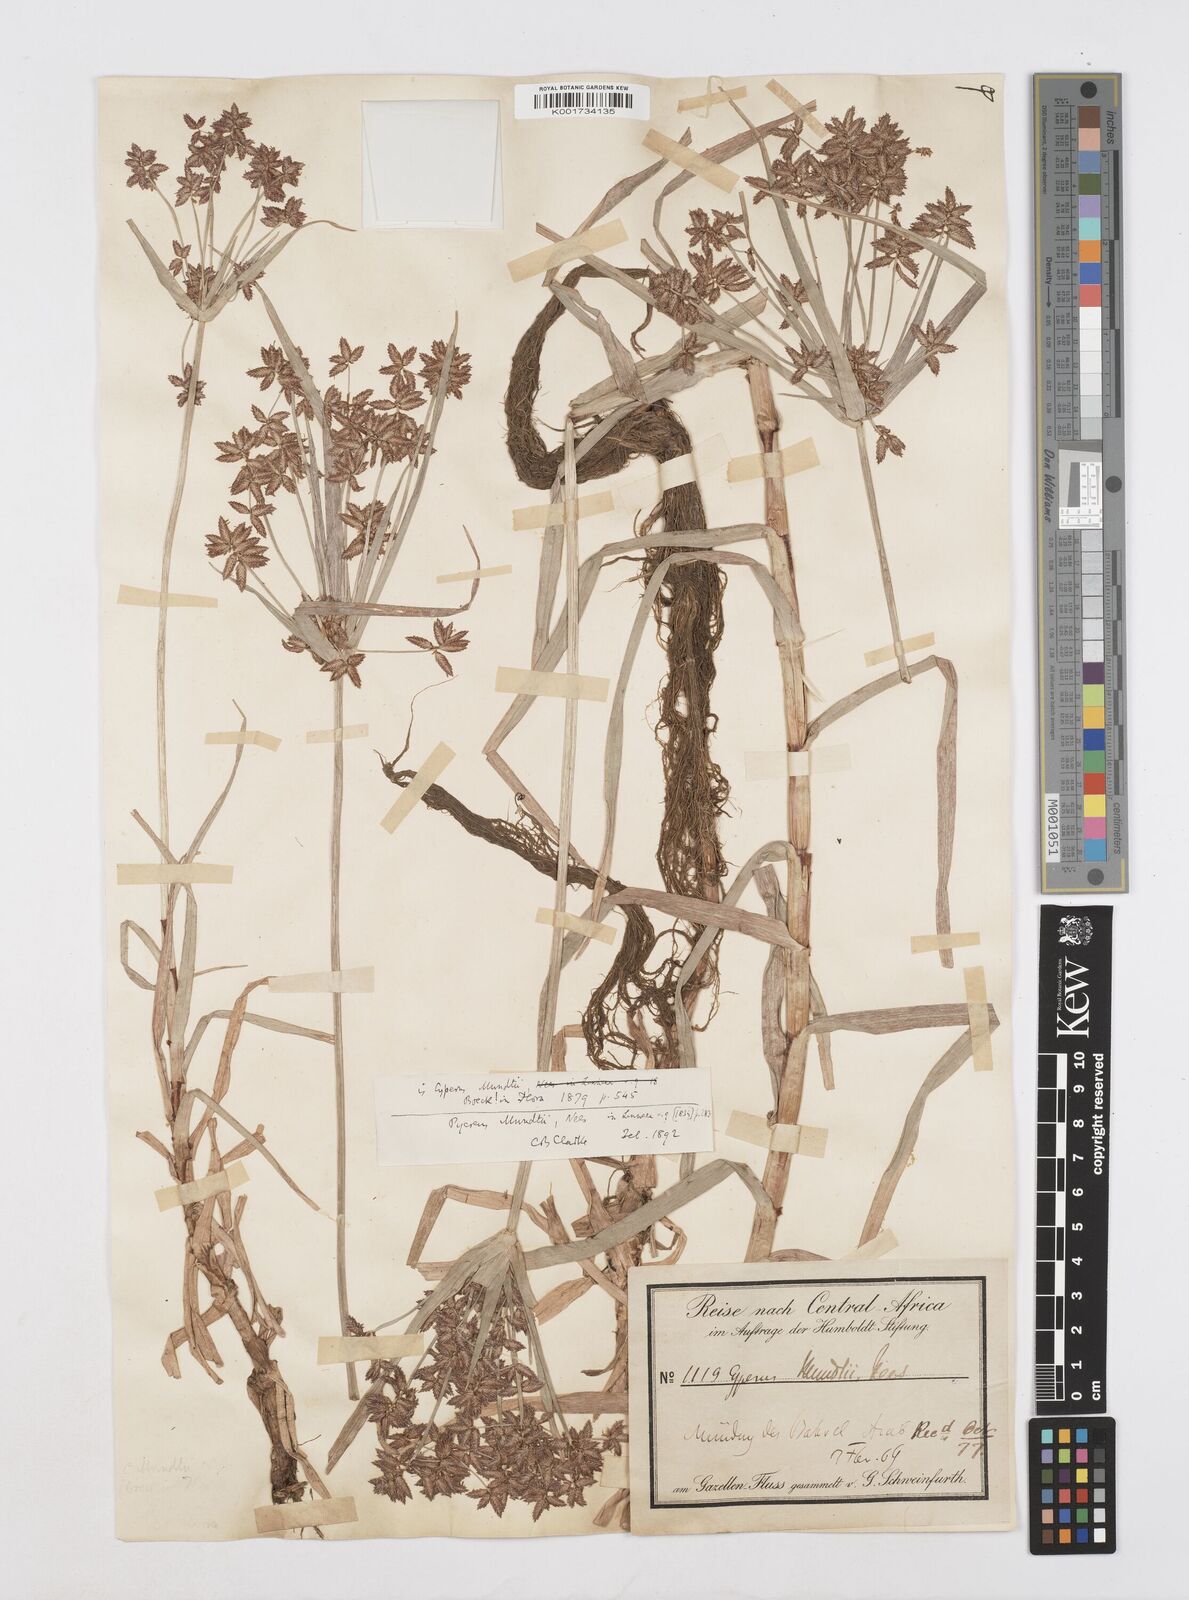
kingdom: Plantae
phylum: Tracheophyta
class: Liliopsida
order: Poales
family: Cyperaceae
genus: Cyperus
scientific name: Cyperus mundii
